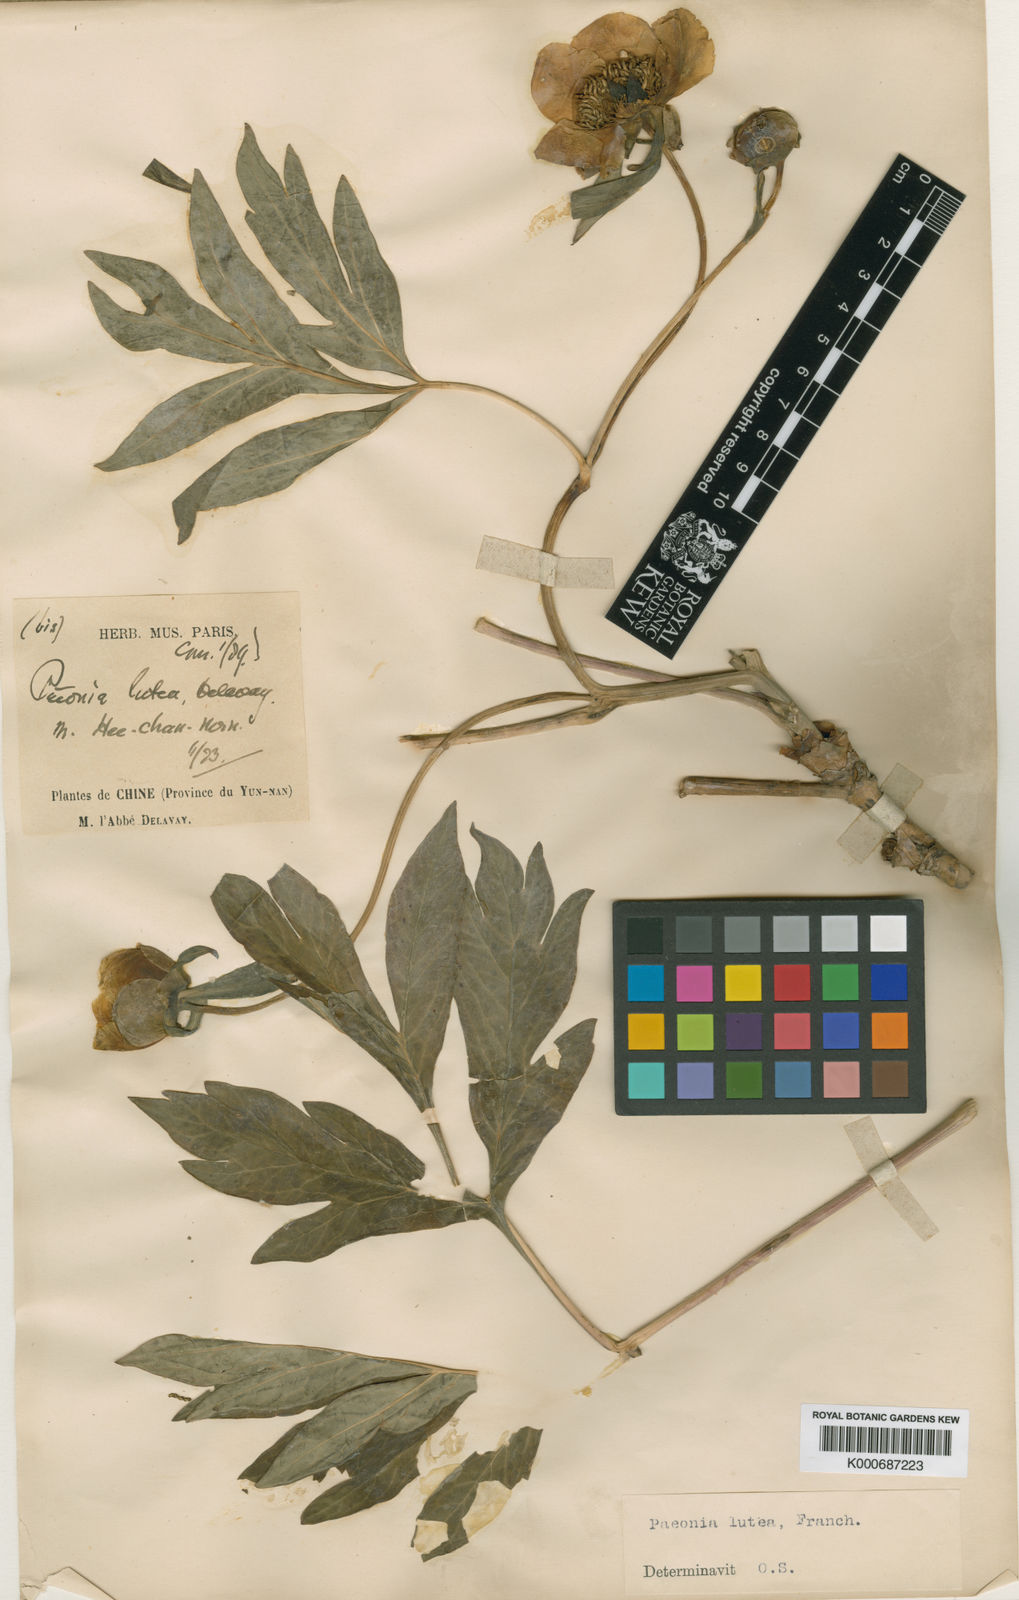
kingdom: Plantae
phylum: Tracheophyta
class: Magnoliopsida
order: Saxifragales
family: Paeoniaceae
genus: Paeonia
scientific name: Paeonia delavayi
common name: Dian mu dan
